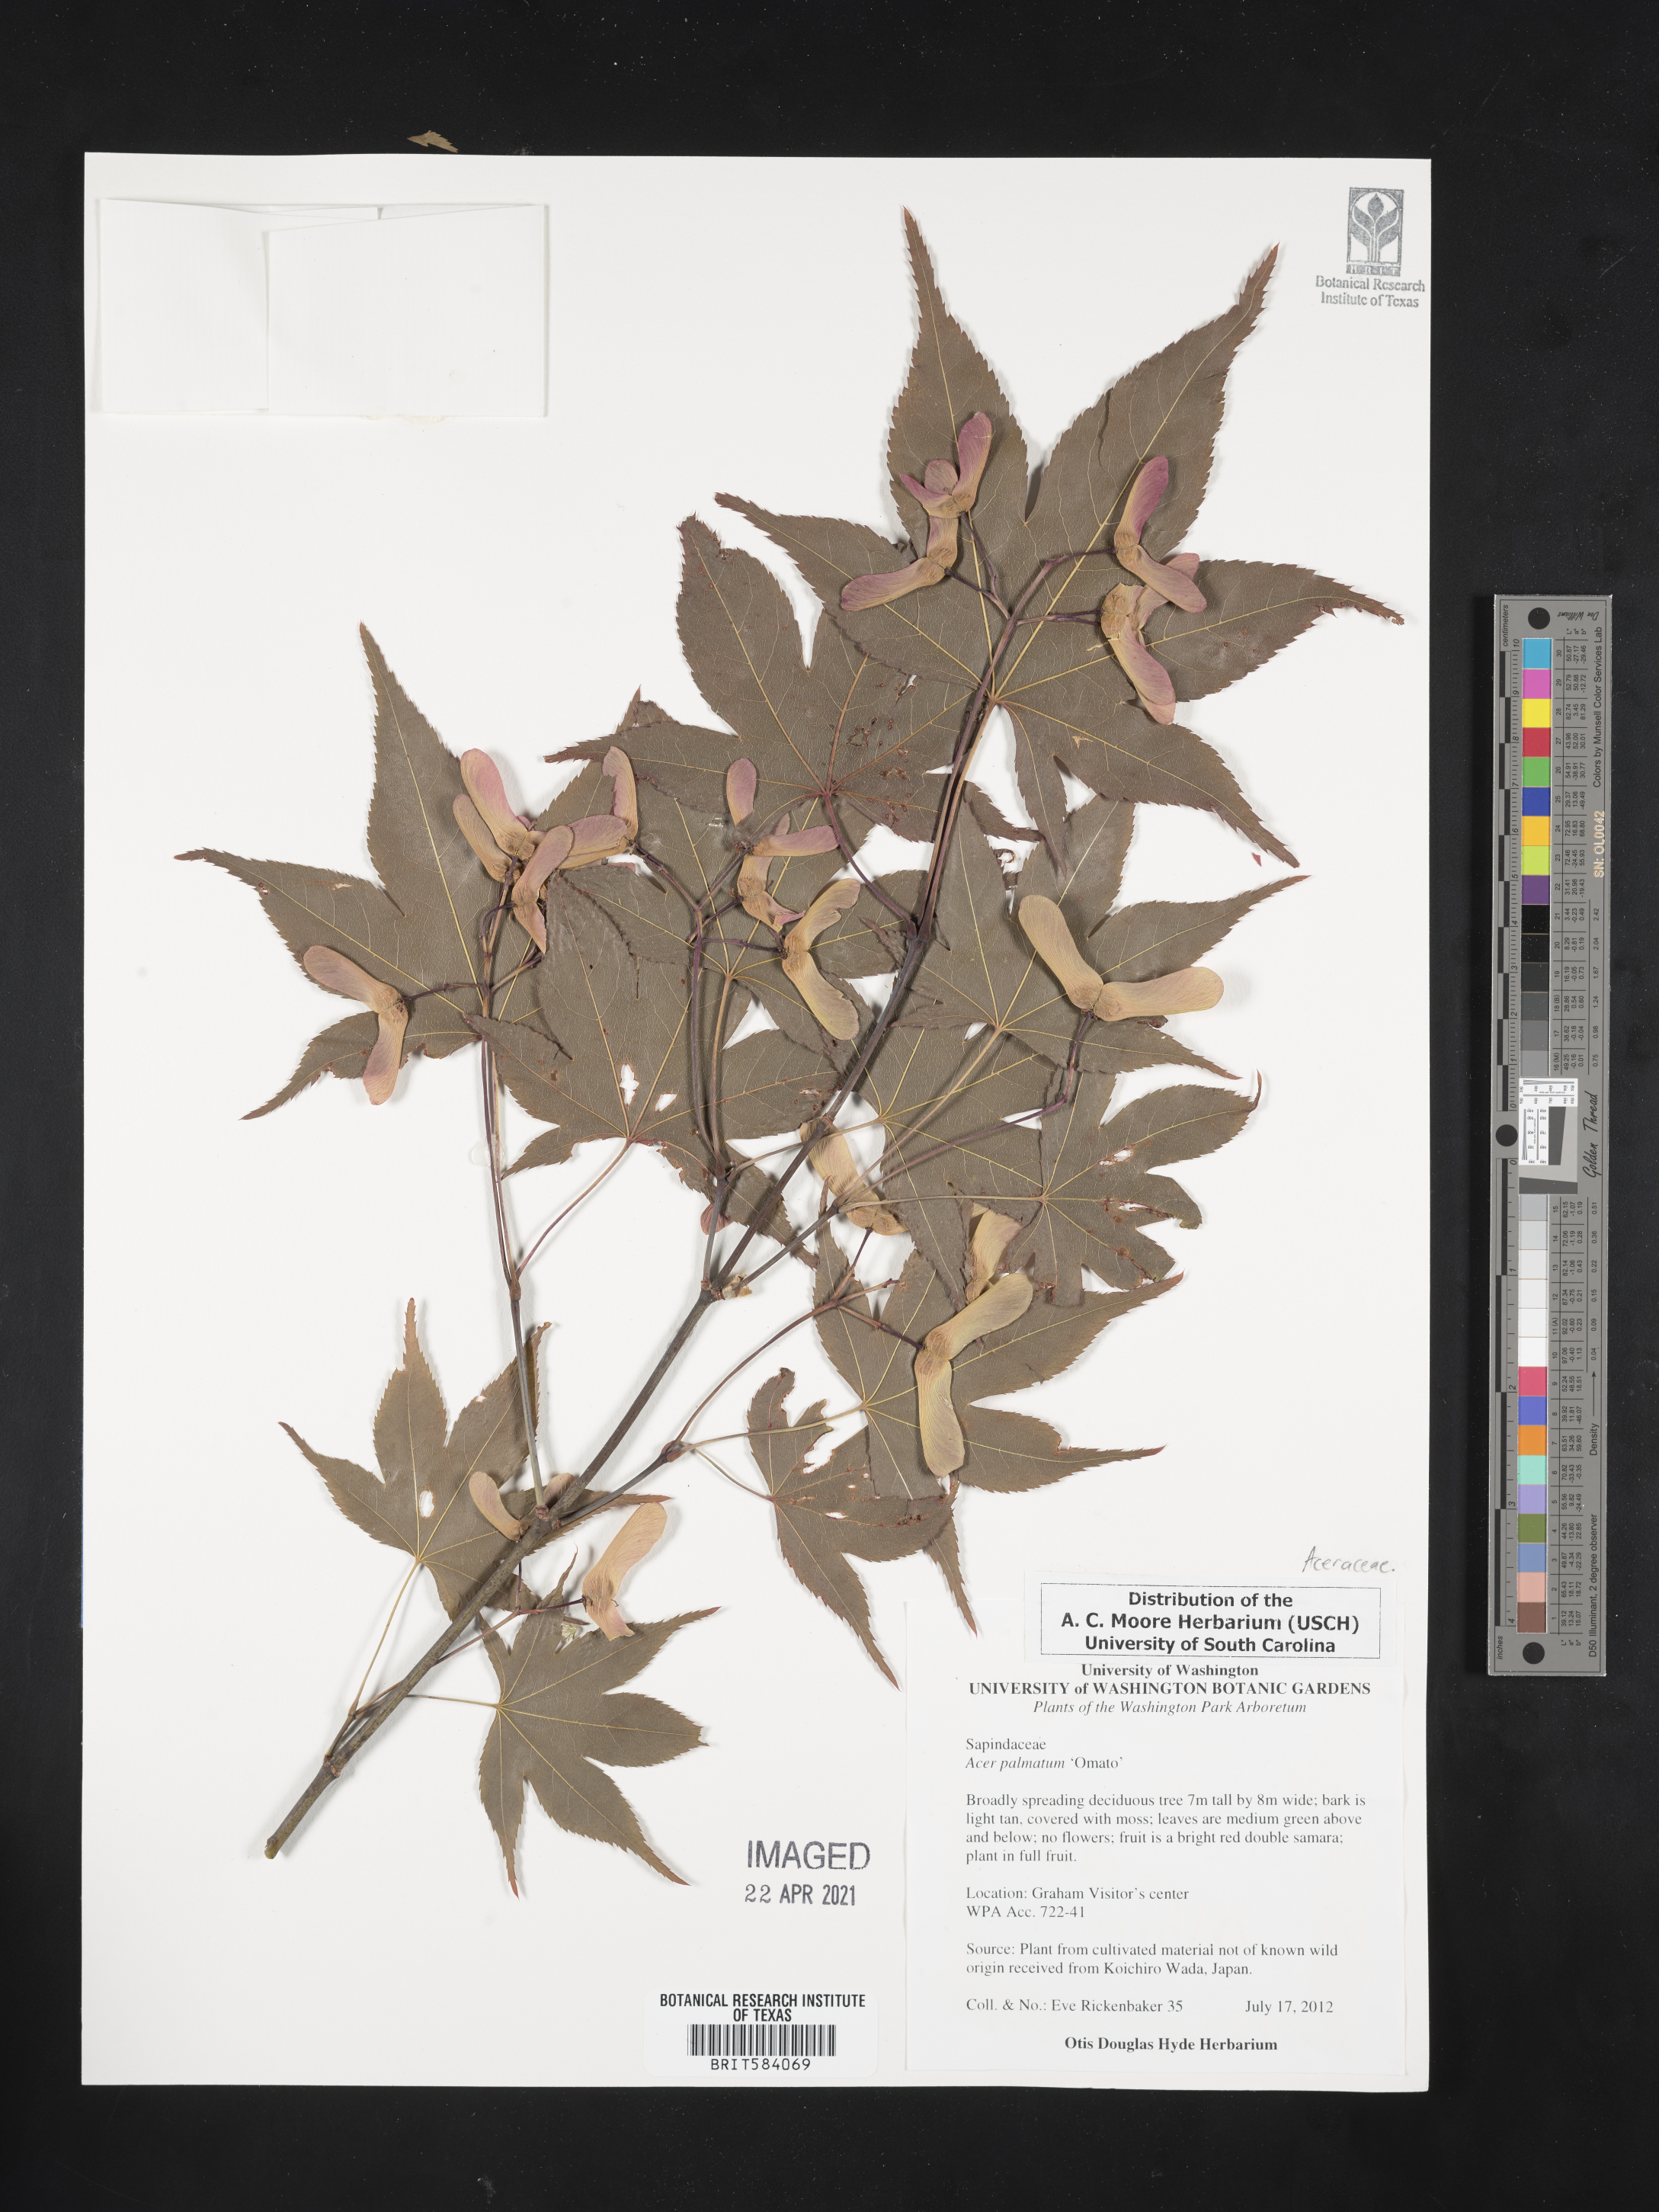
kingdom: Plantae
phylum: Tracheophyta
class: Magnoliopsida
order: Sapindales
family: Sapindaceae
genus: Acer
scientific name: Acer palmatum
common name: Japanese maple
